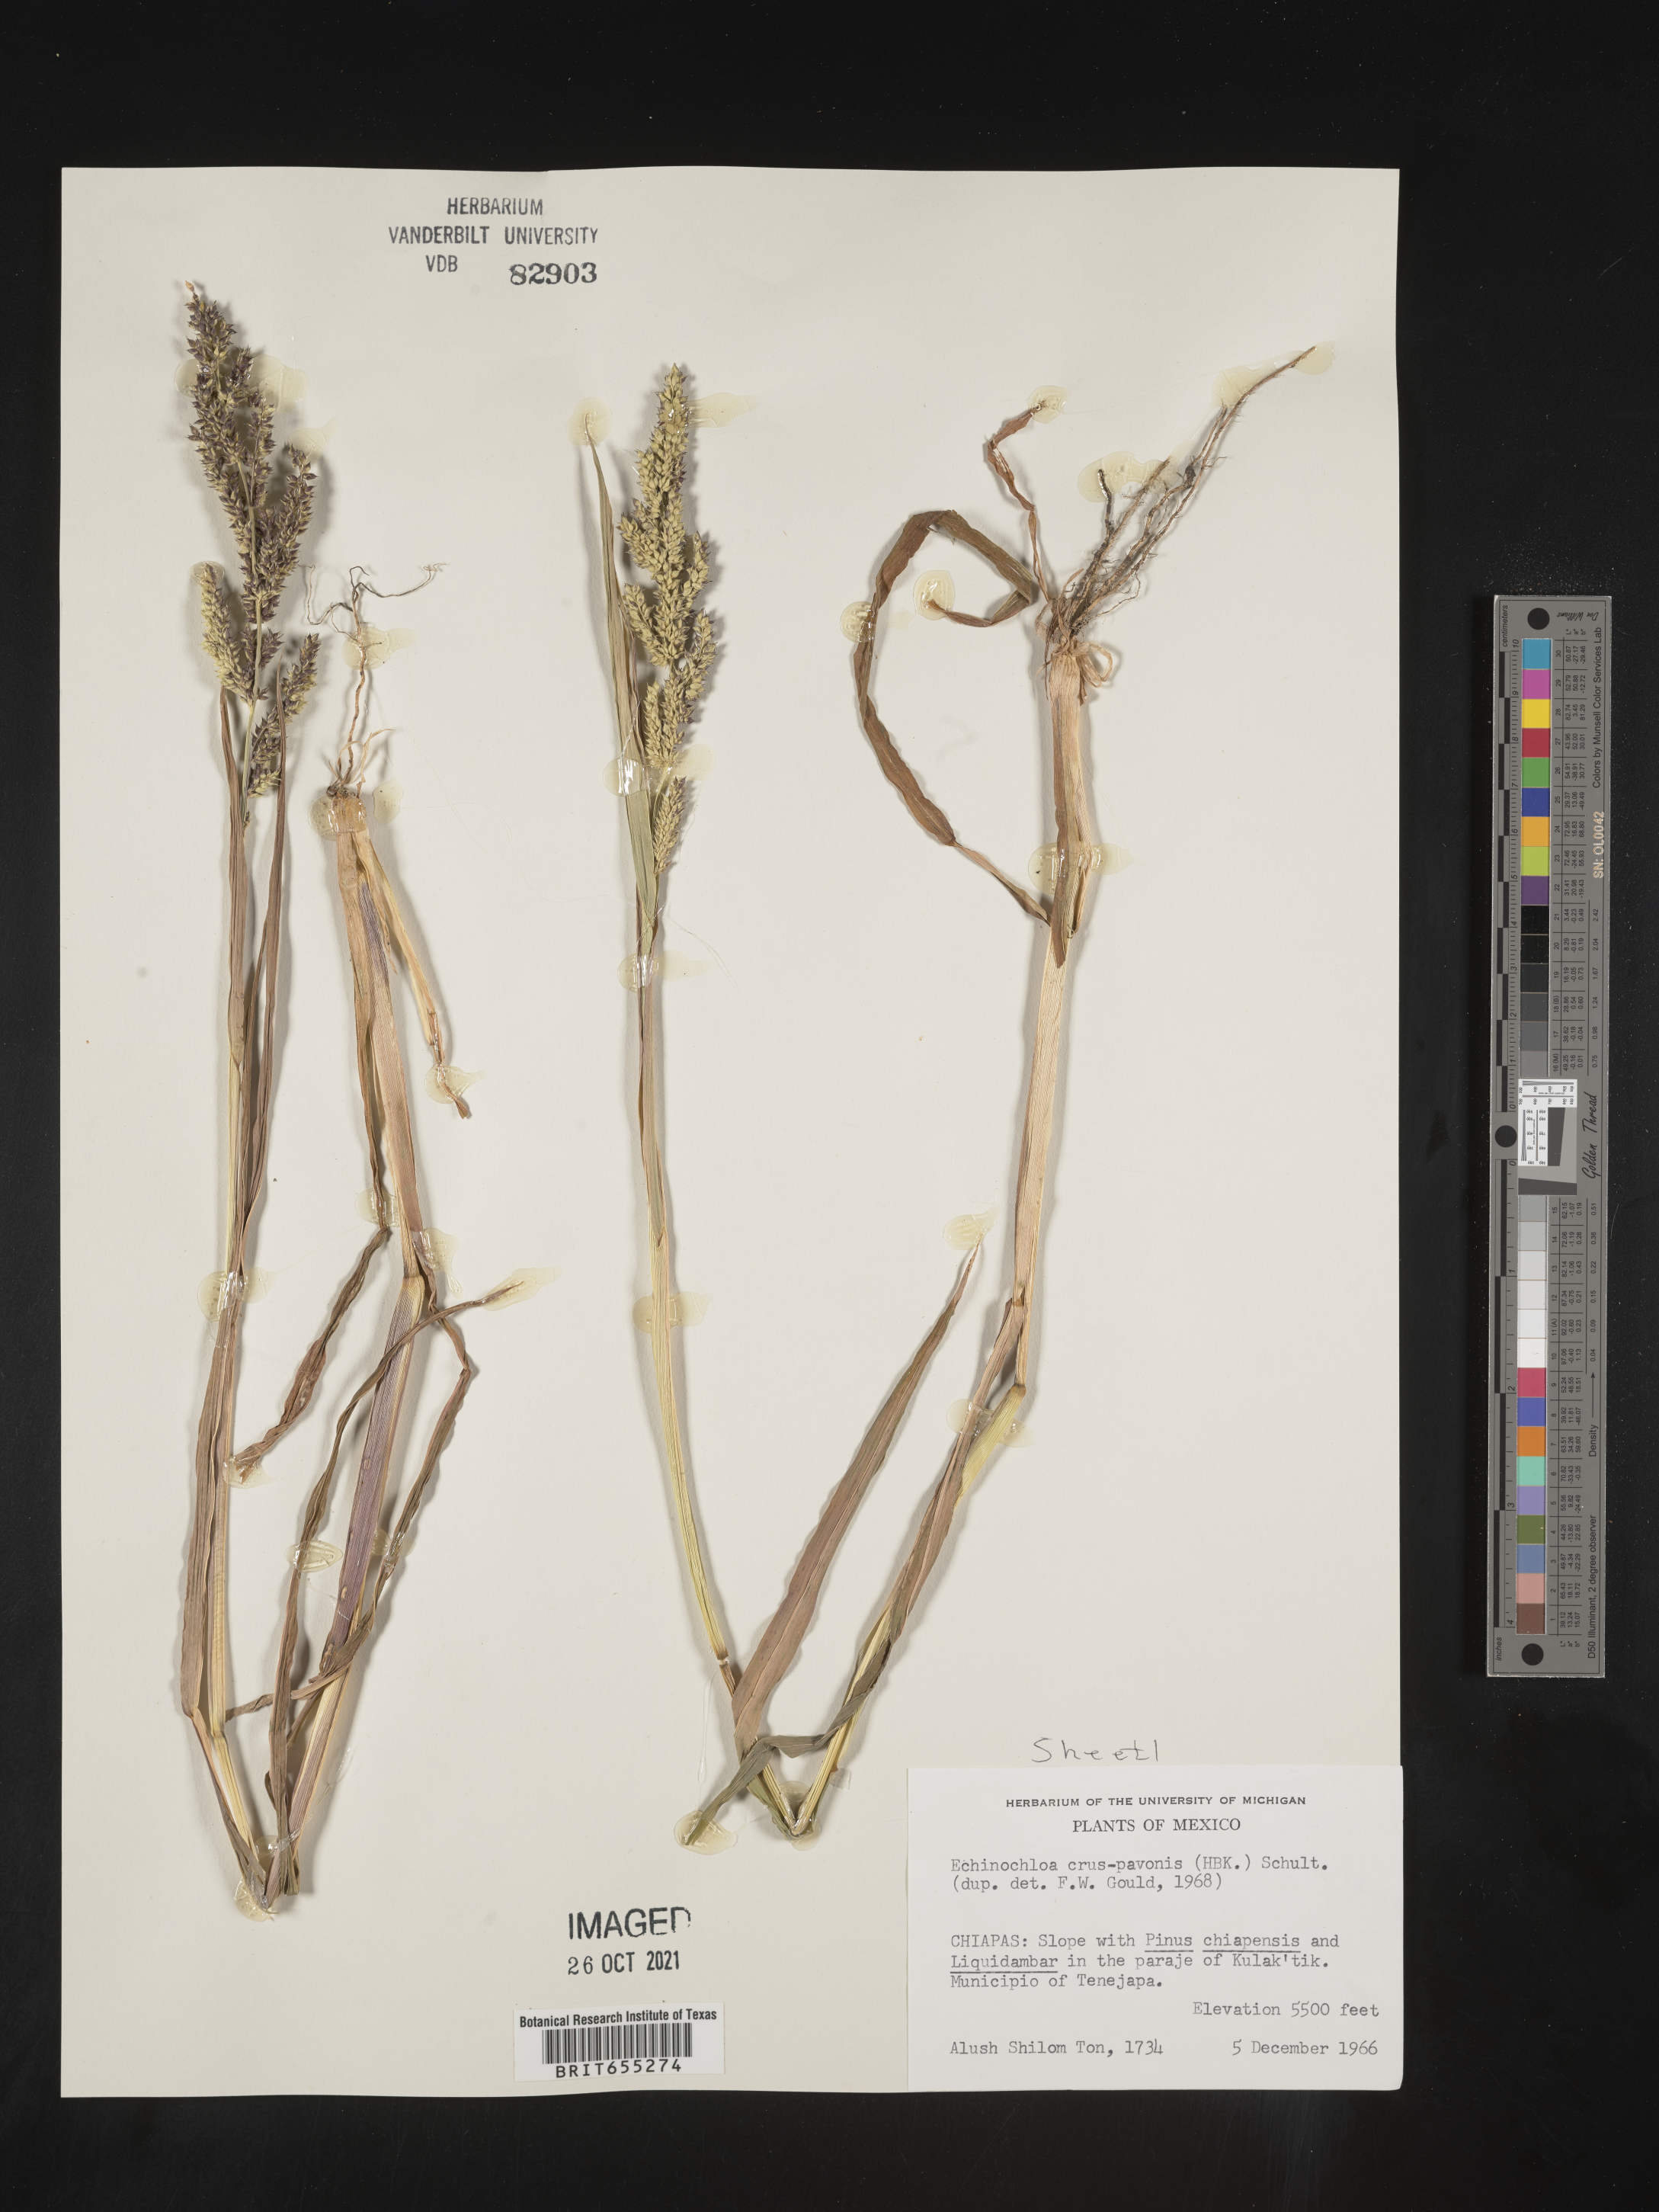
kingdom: Plantae
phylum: Tracheophyta
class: Liliopsida
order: Poales
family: Poaceae
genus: Echinochloa
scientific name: Echinochloa
